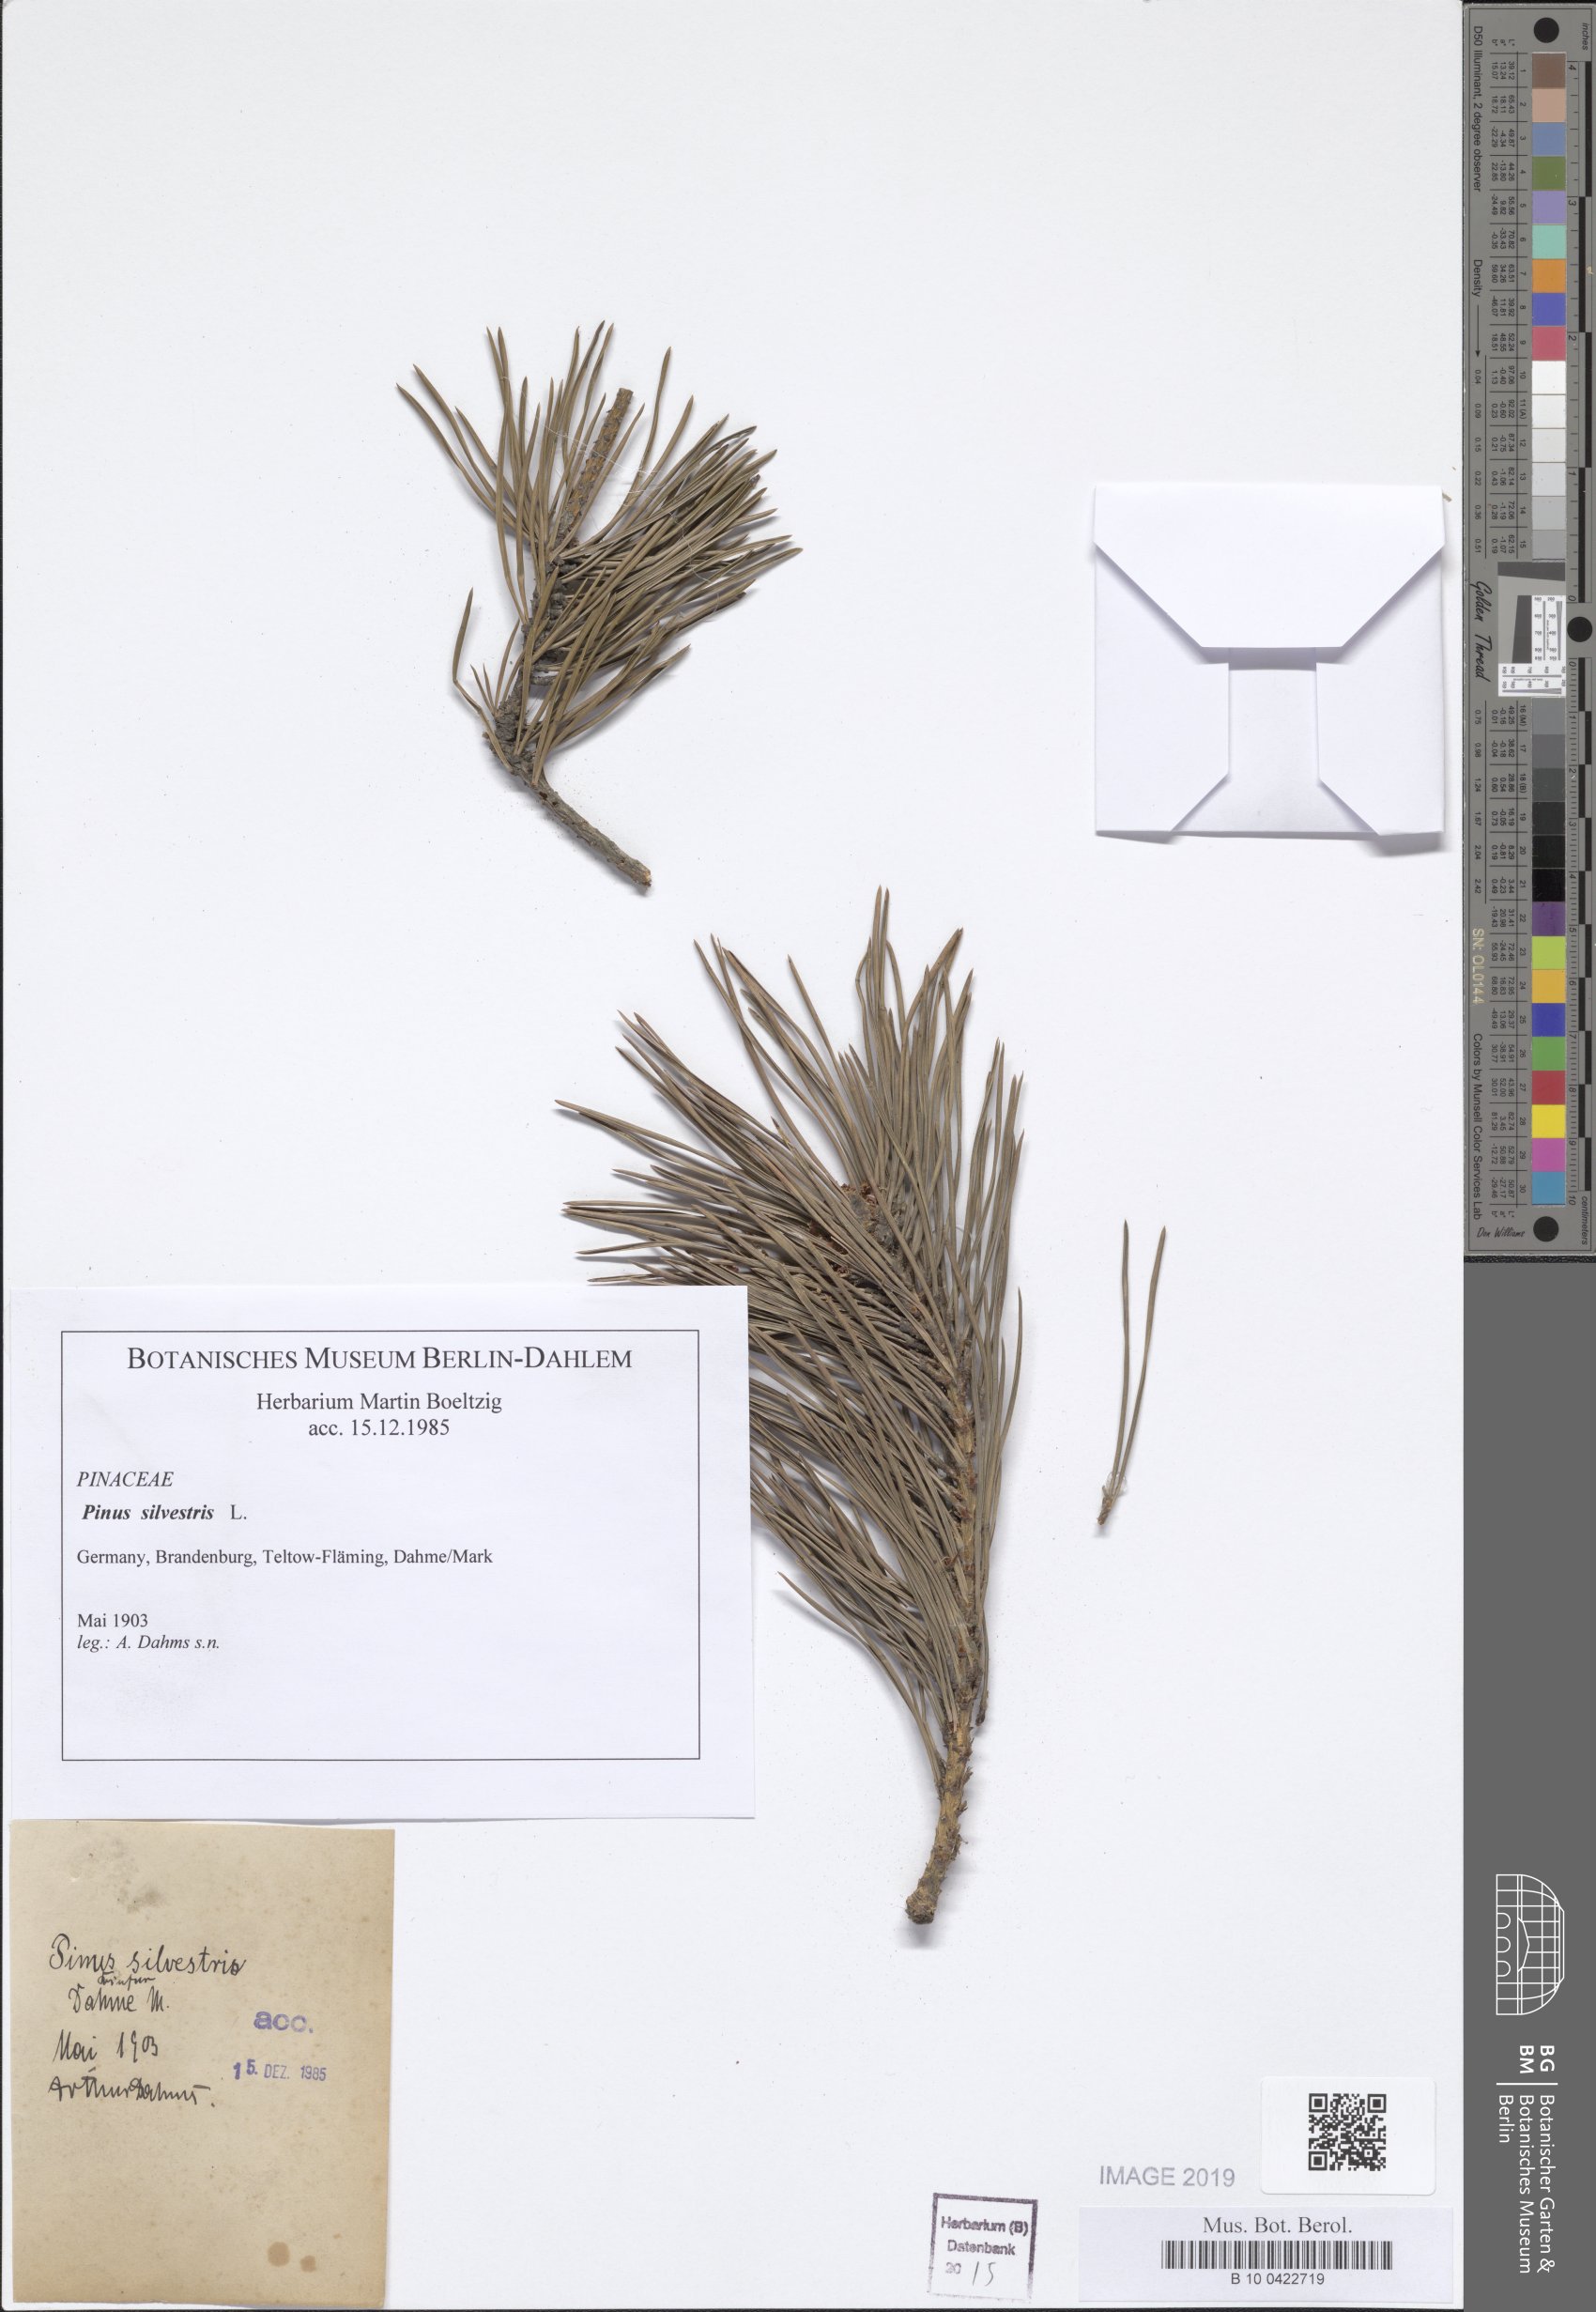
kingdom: Plantae
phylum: Tracheophyta
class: Pinopsida
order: Pinales
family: Pinaceae
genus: Pinus
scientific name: Pinus sylvestris
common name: Scots pine
